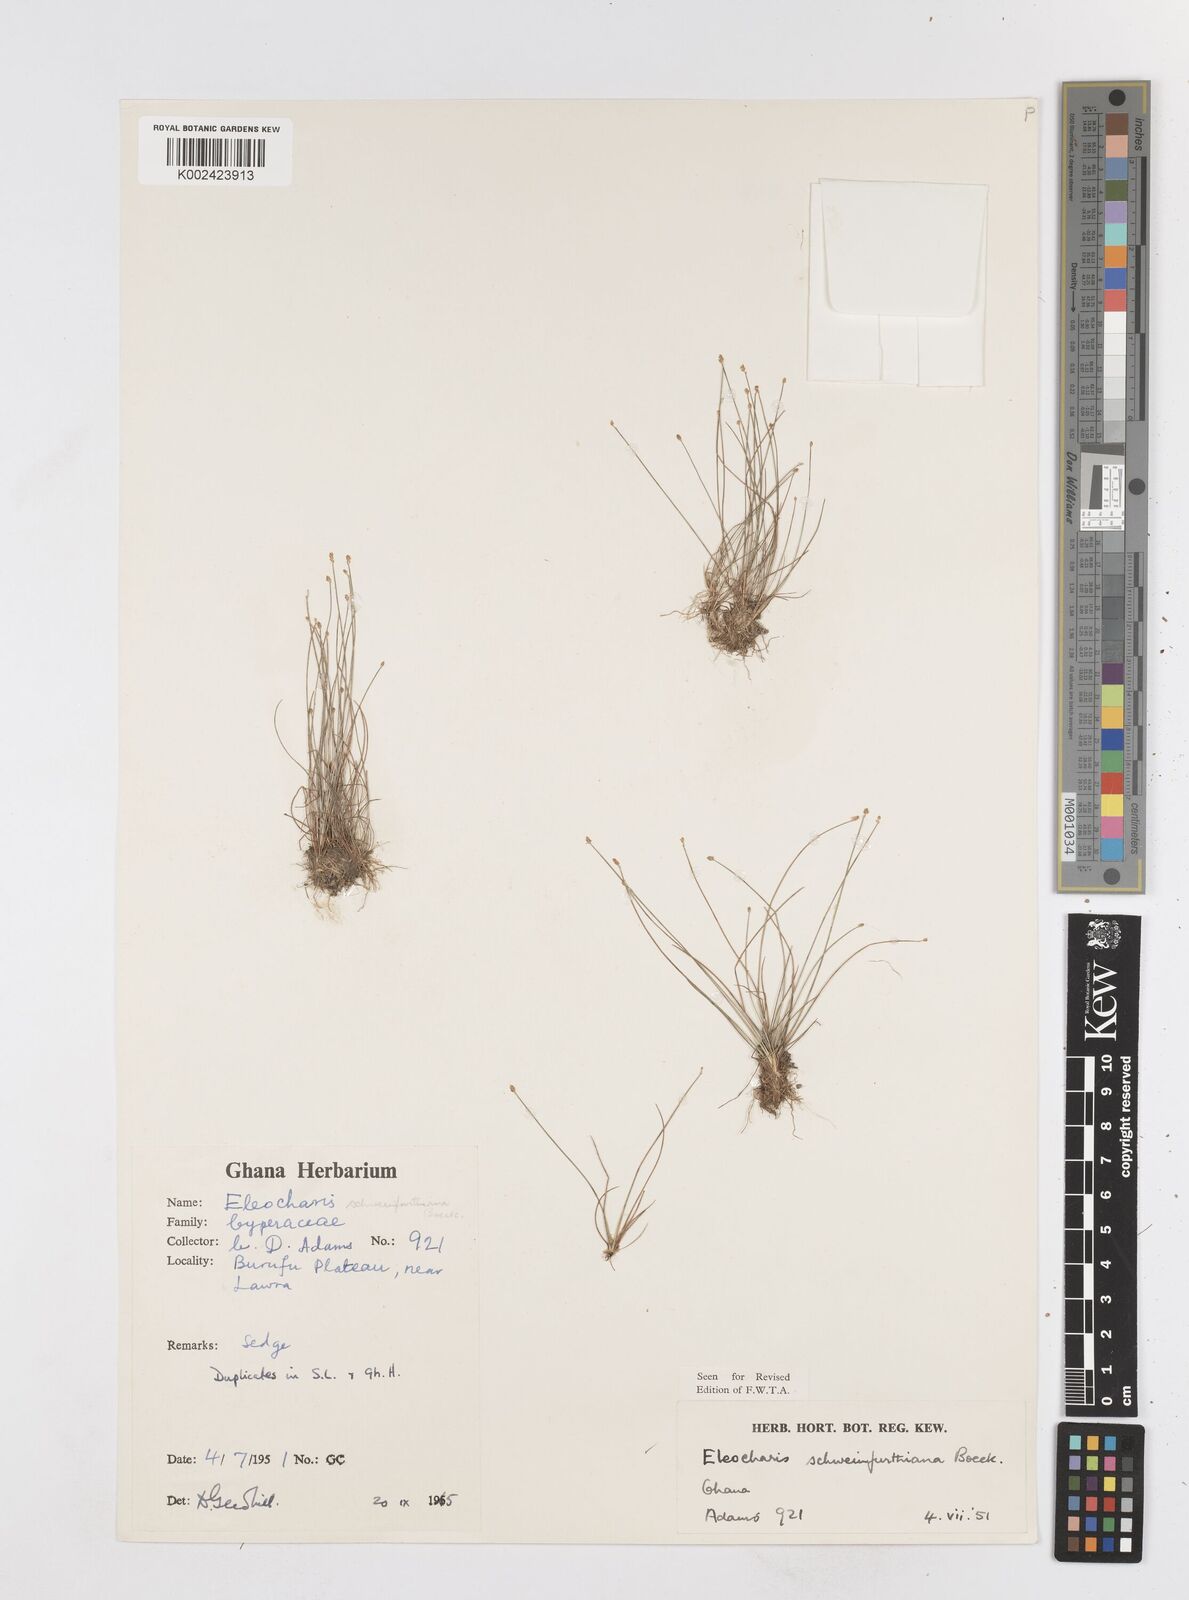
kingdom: Plantae
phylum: Tracheophyta
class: Liliopsida
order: Poales
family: Cyperaceae
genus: Eleocharis
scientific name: Eleocharis setifolia
